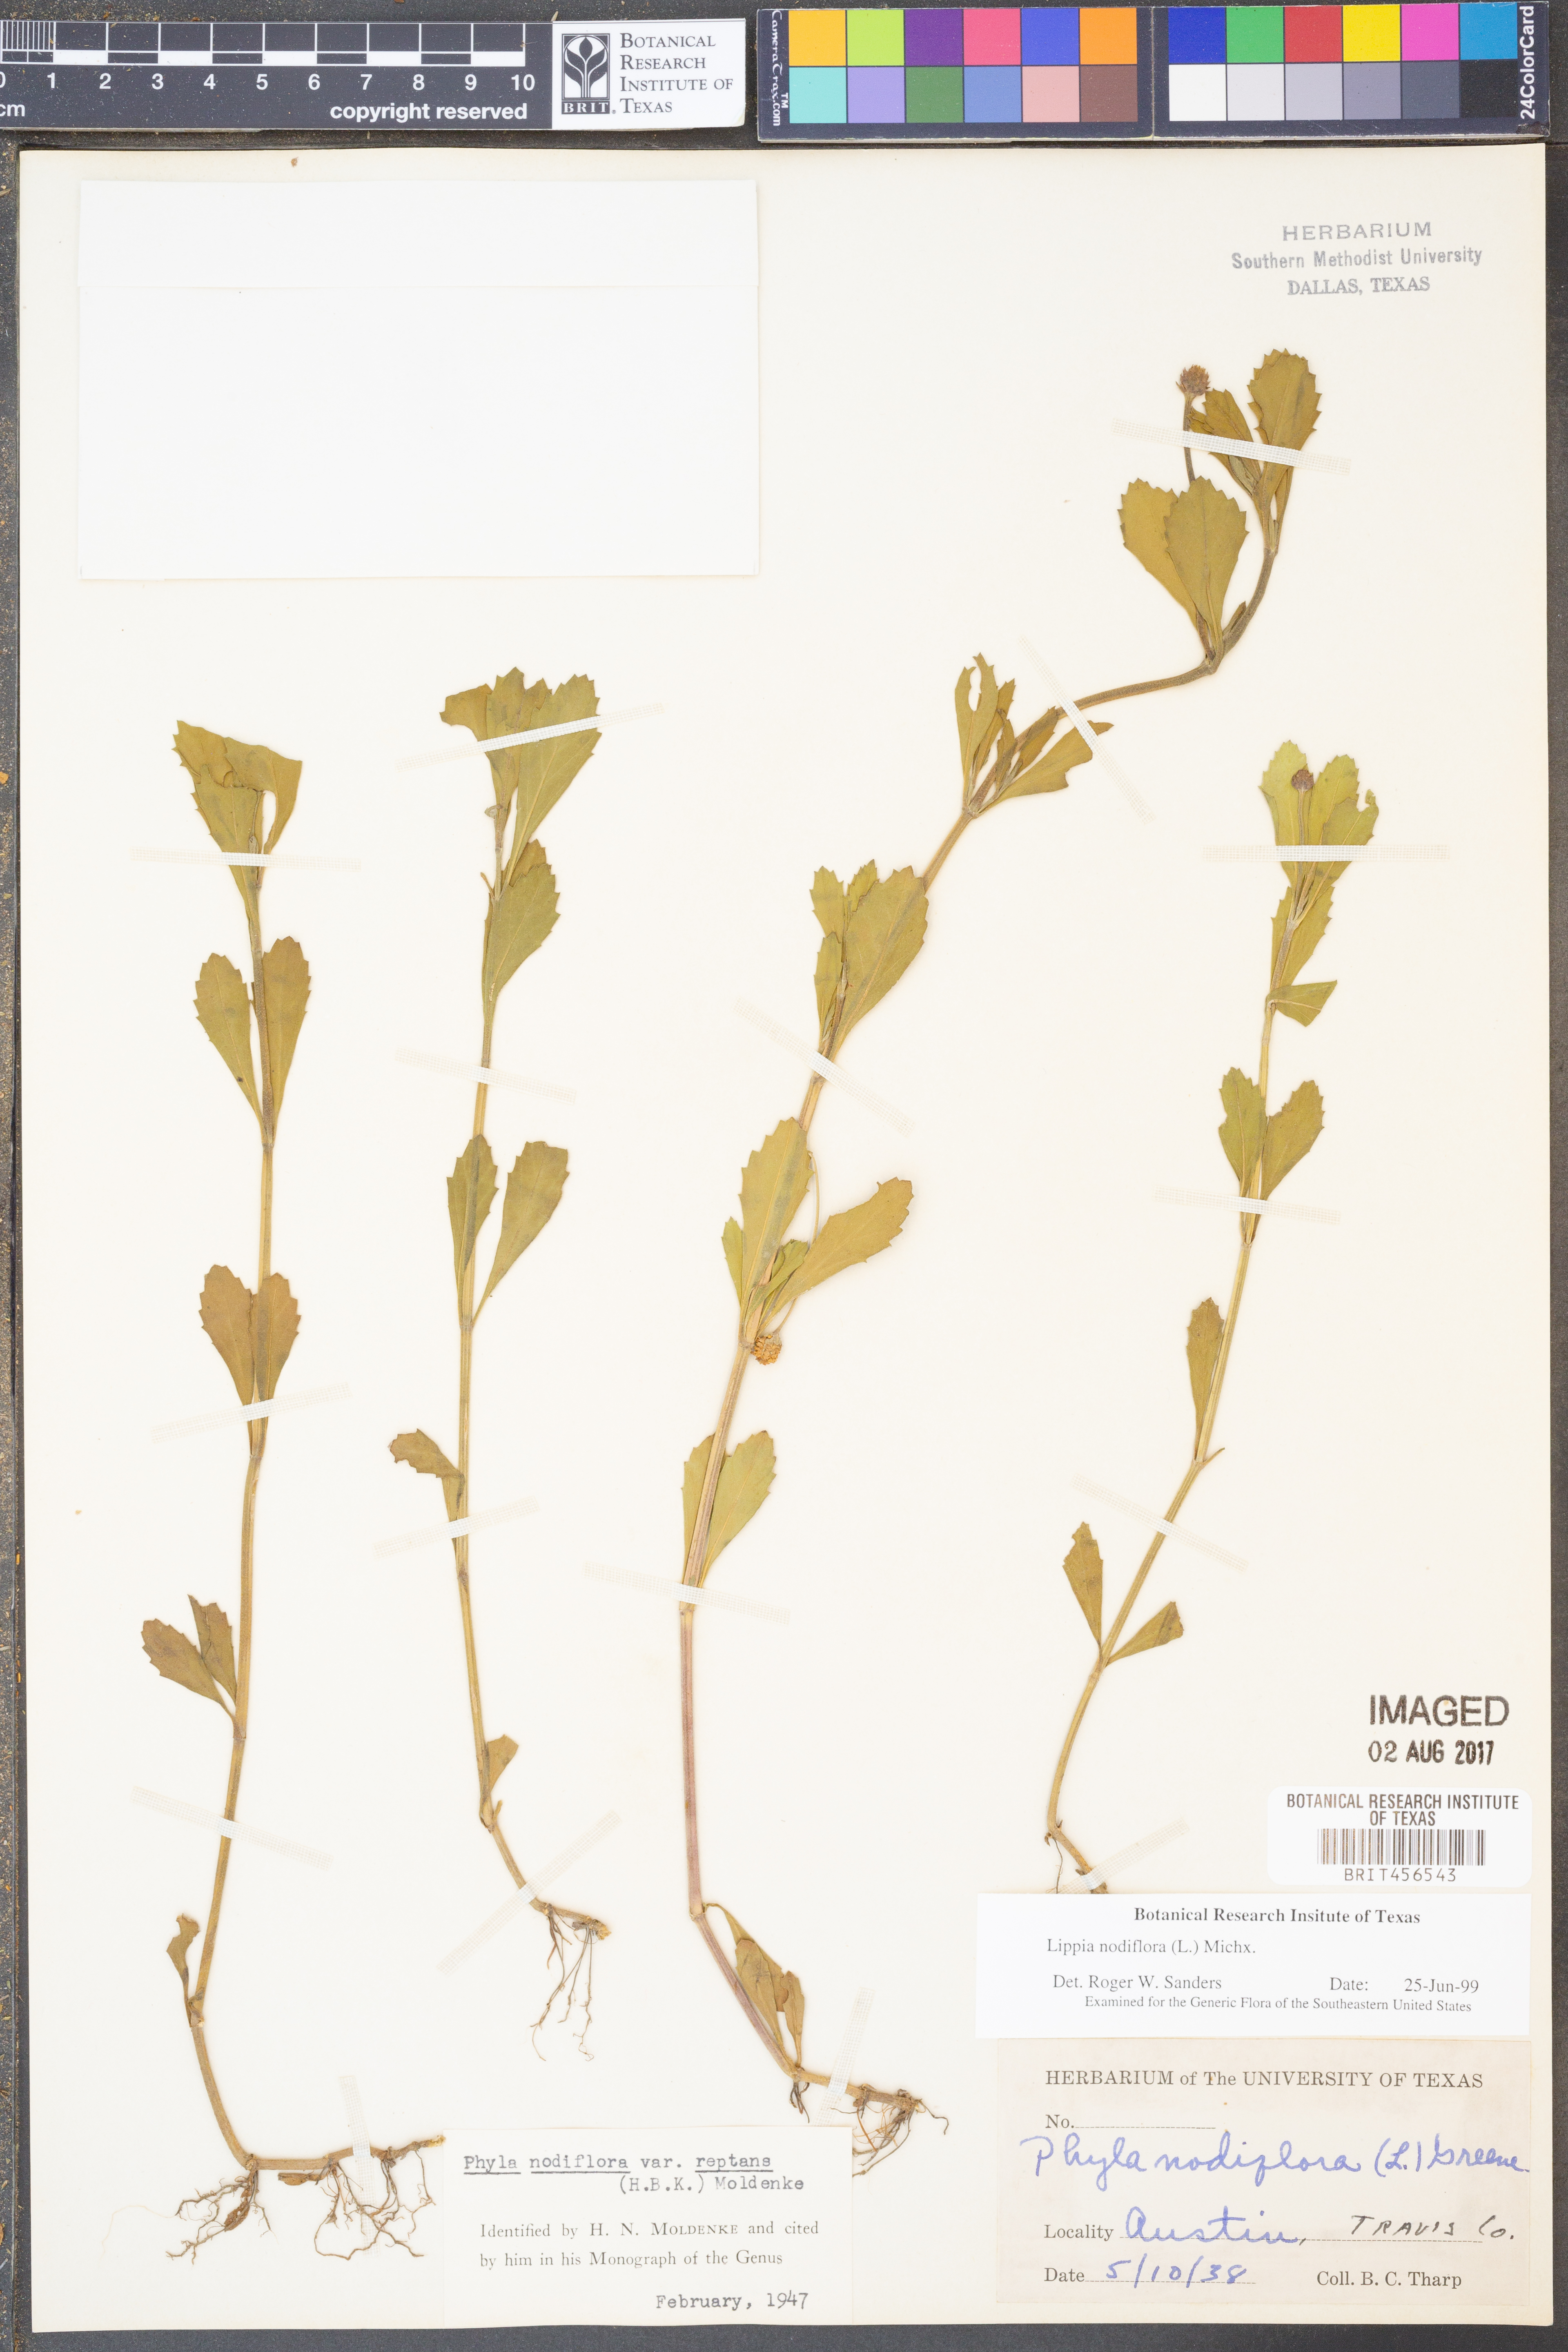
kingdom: Plantae
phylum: Tracheophyta
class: Magnoliopsida
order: Lamiales
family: Verbenaceae
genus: Phyla
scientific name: Phyla nodiflora
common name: Frogfruit
